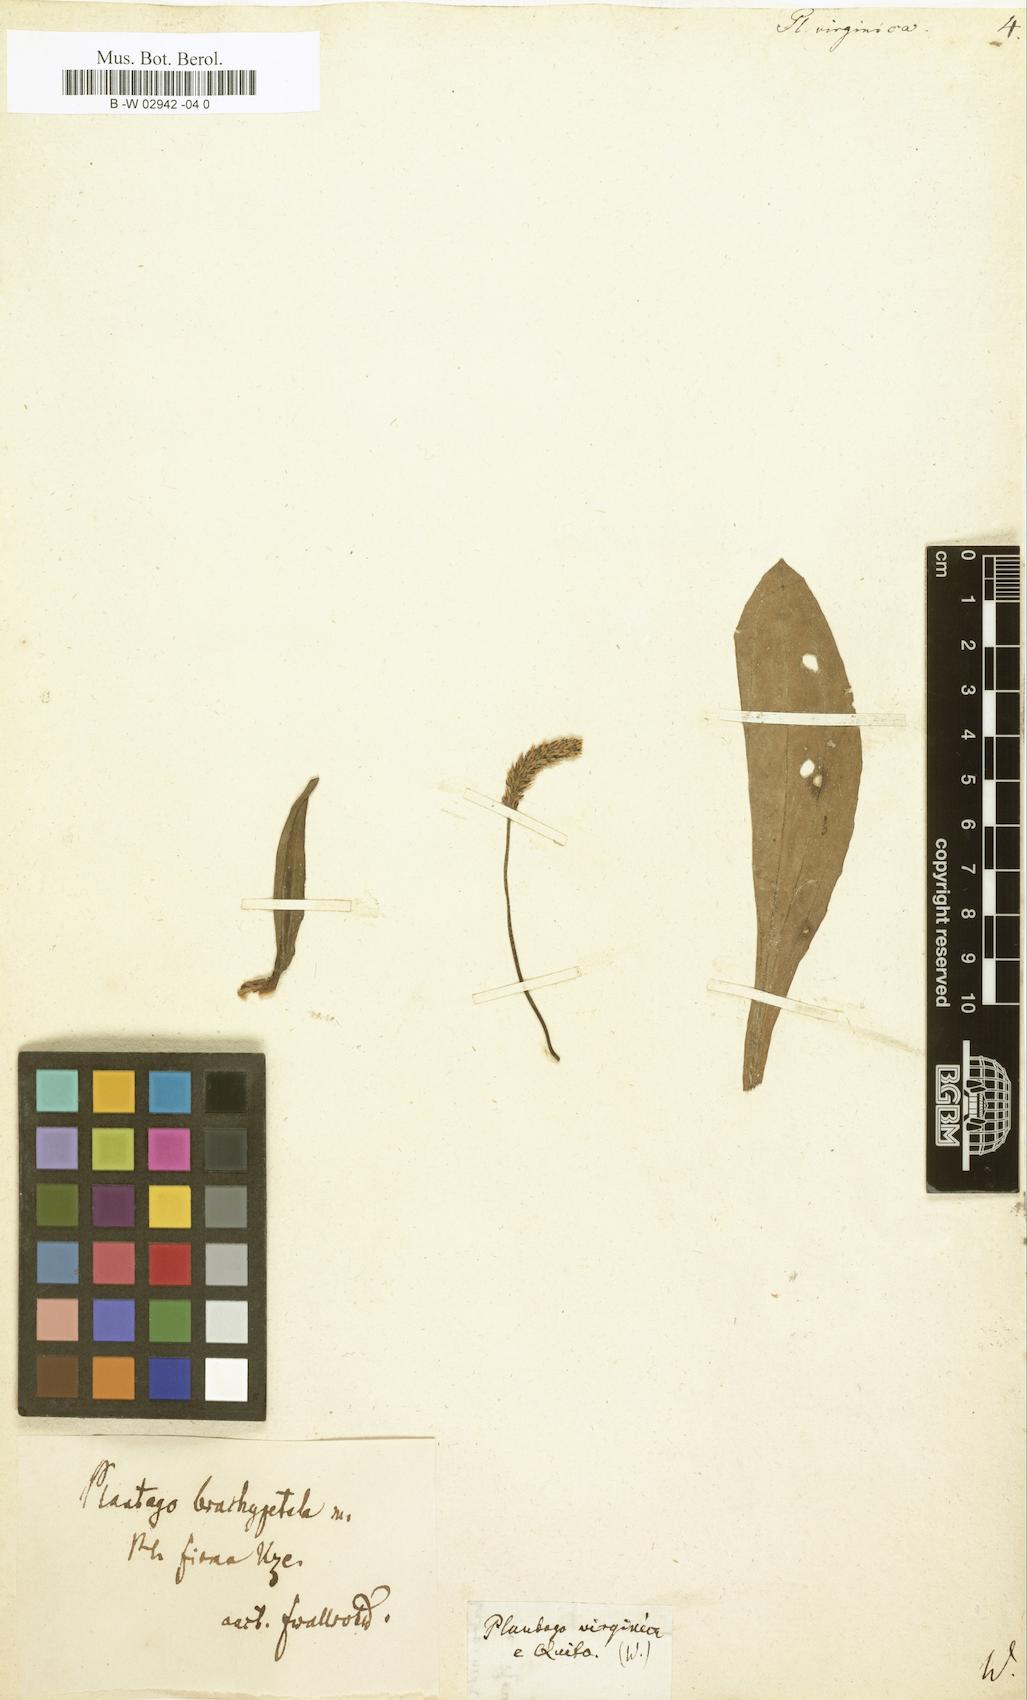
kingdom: Plantae
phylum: Tracheophyta
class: Magnoliopsida
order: Lamiales
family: Plantaginaceae
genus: Plantago
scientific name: Plantago virginica
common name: Hoary plantain
